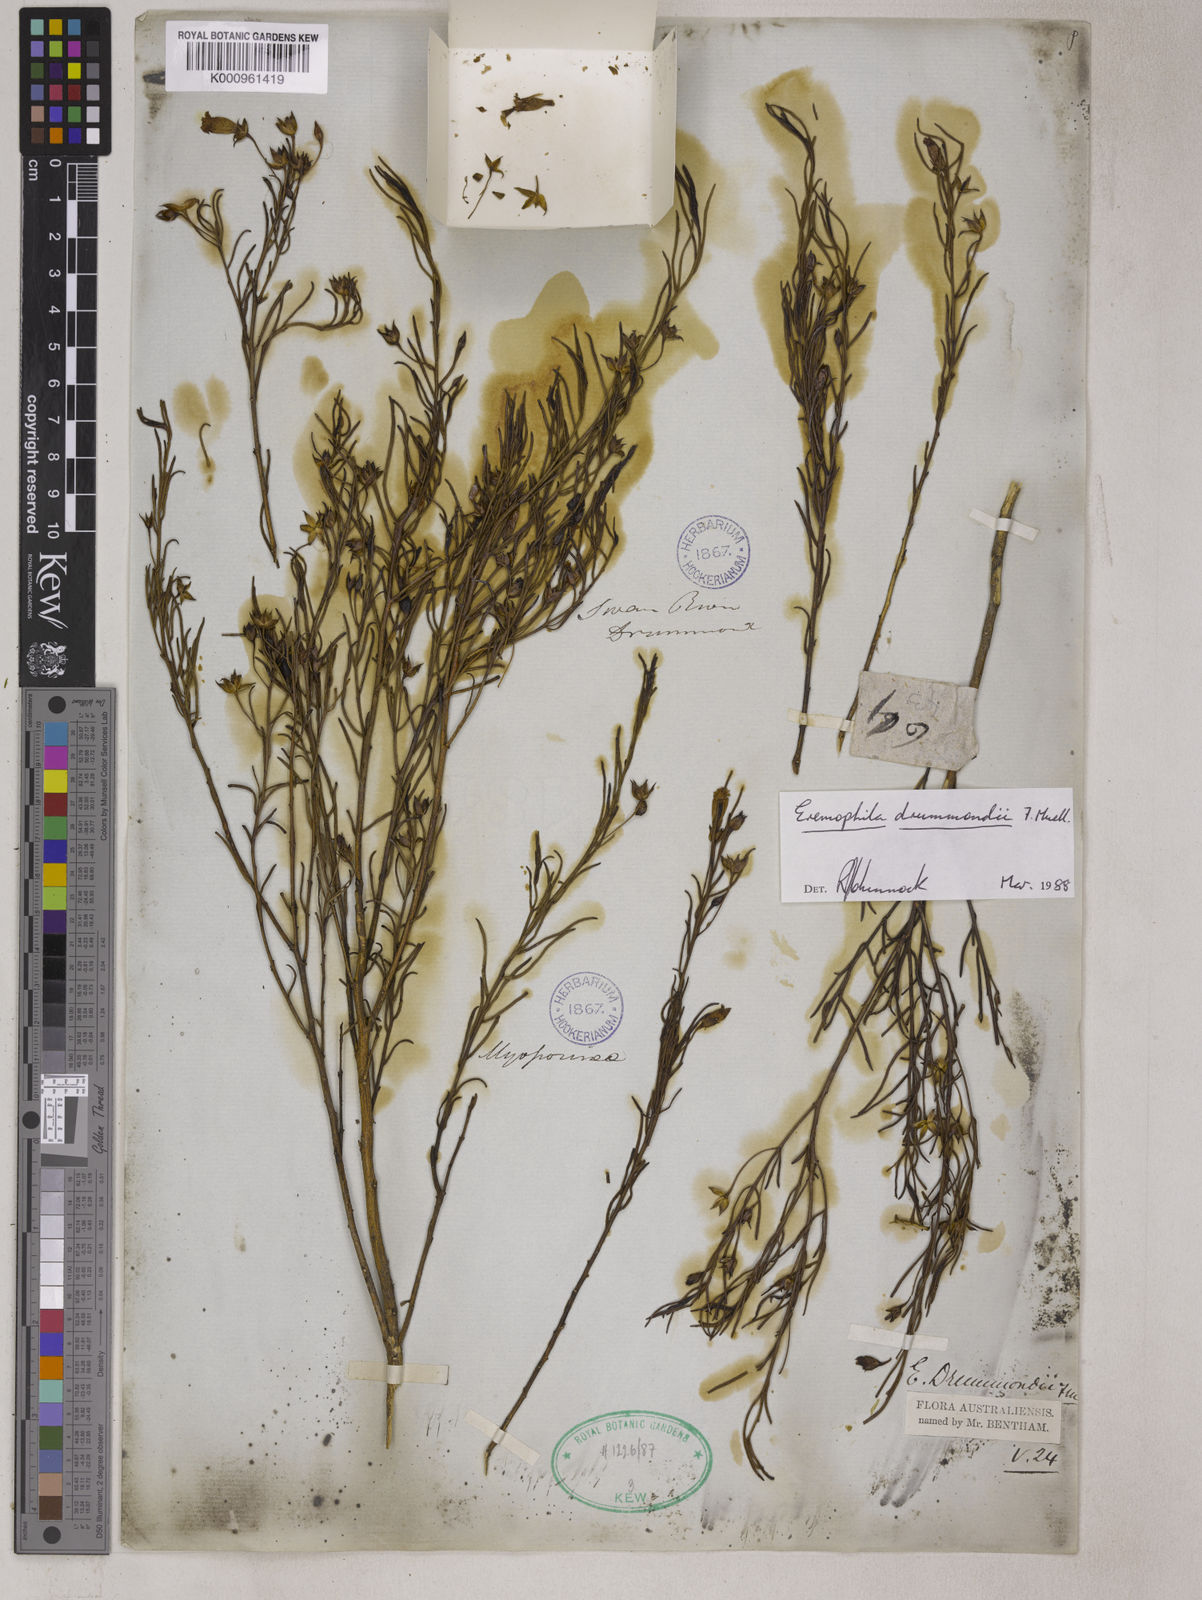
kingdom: Plantae
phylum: Tracheophyta
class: Magnoliopsida
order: Lamiales
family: Scrophulariaceae
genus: Eremophila
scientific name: Eremophila drummondii
